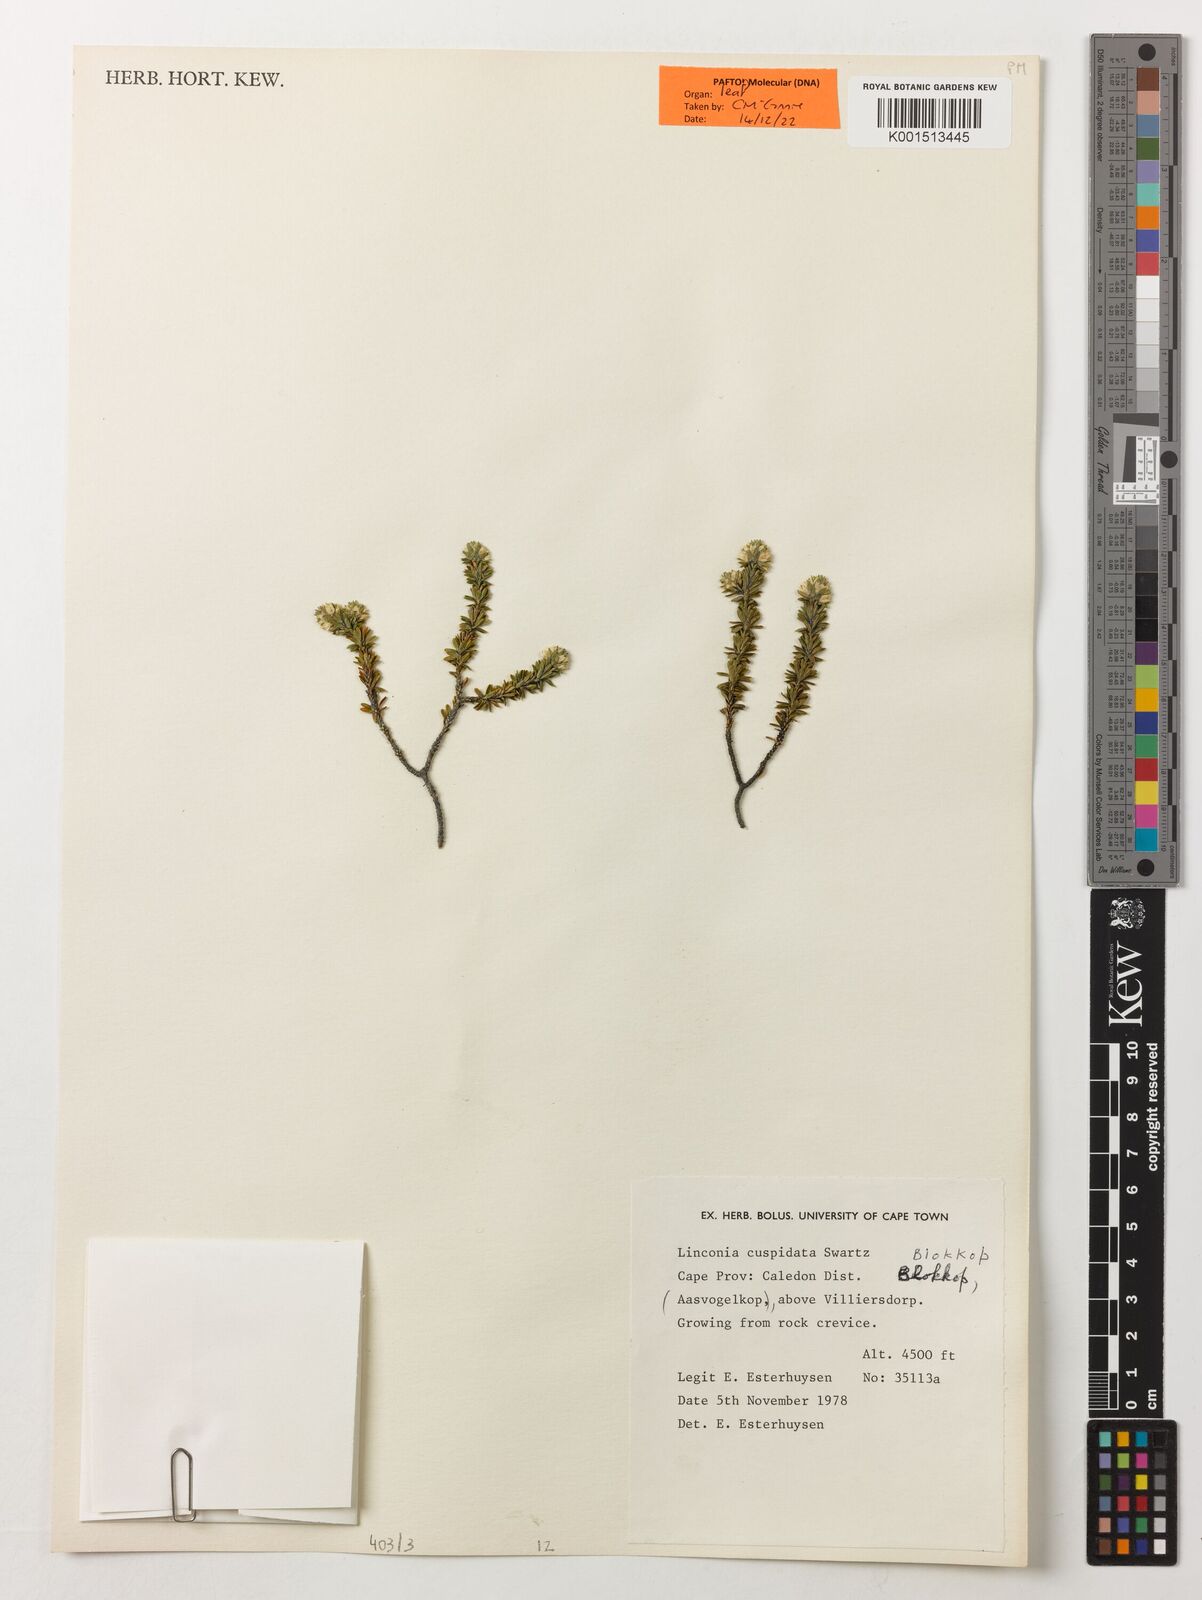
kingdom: Plantae
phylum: Tracheophyta
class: Magnoliopsida
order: Bruniales
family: Bruniaceae
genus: Audouinia
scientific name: Audouinia capitata
